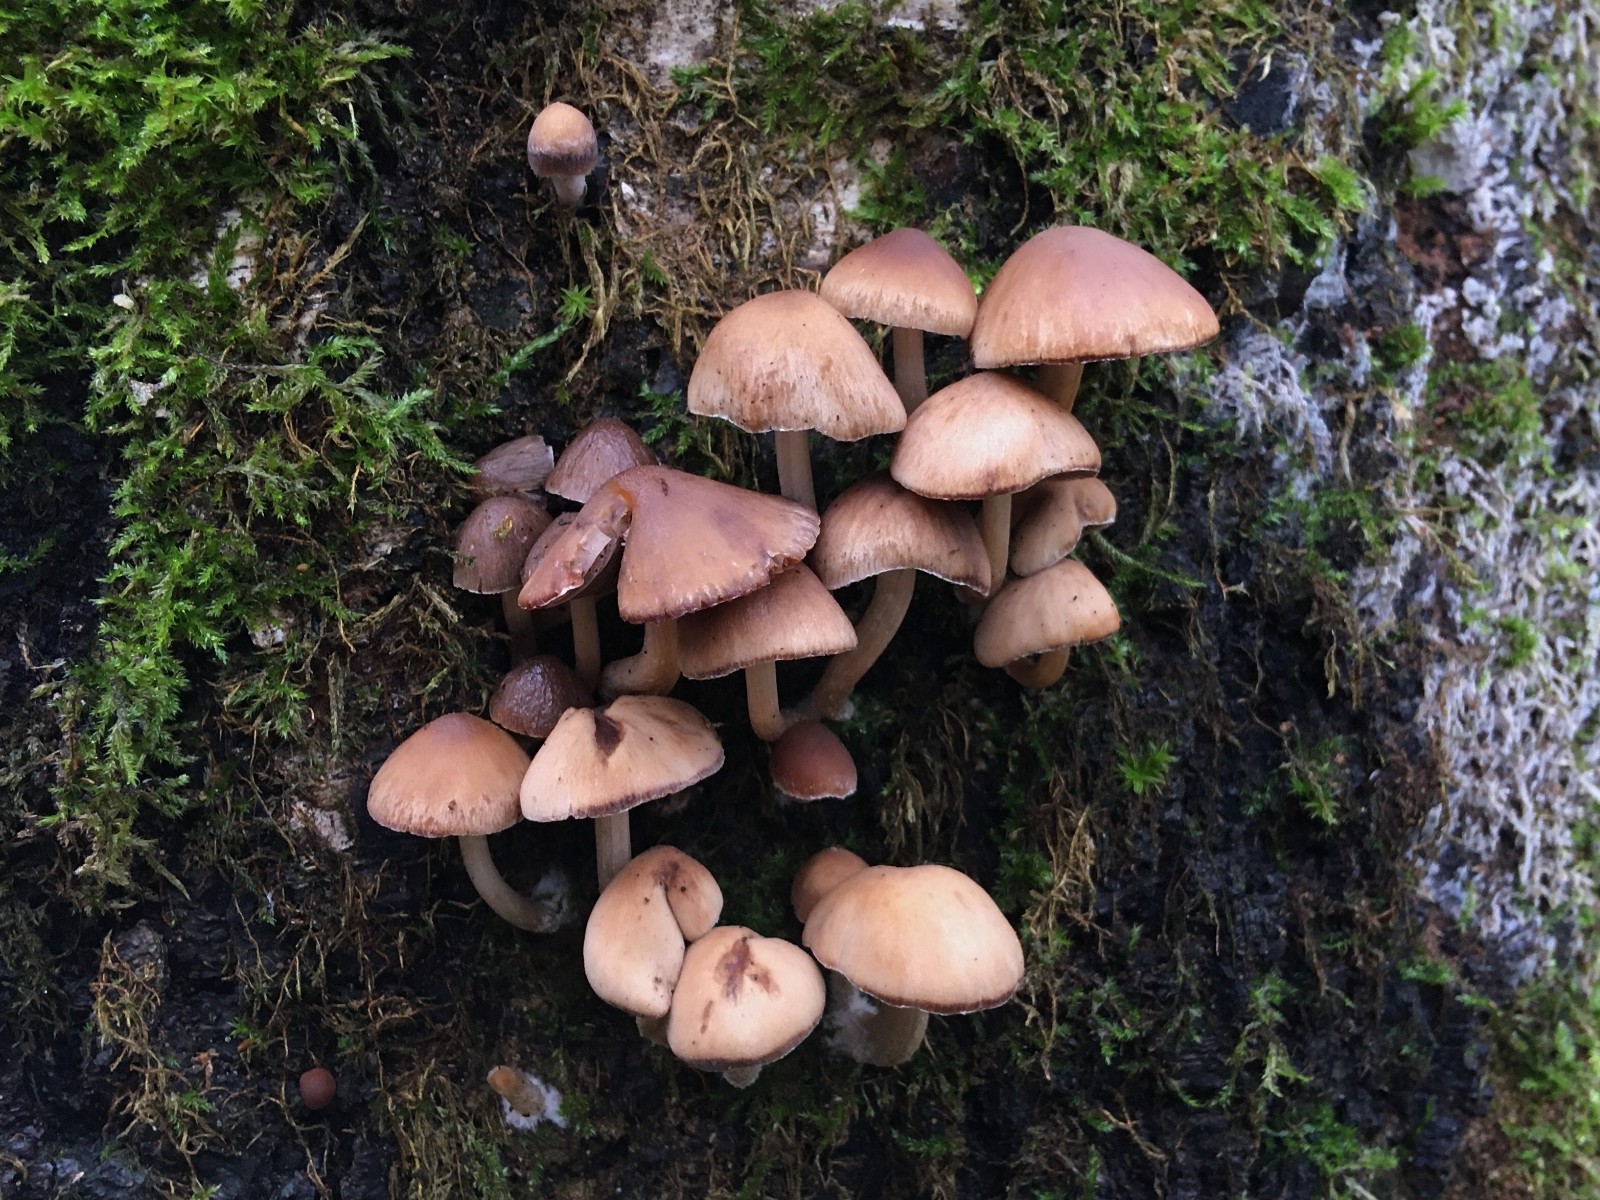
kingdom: Fungi
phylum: Basidiomycota
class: Agaricomycetes
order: Agaricales
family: Psathyrellaceae
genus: Psathyrella
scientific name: Psathyrella
